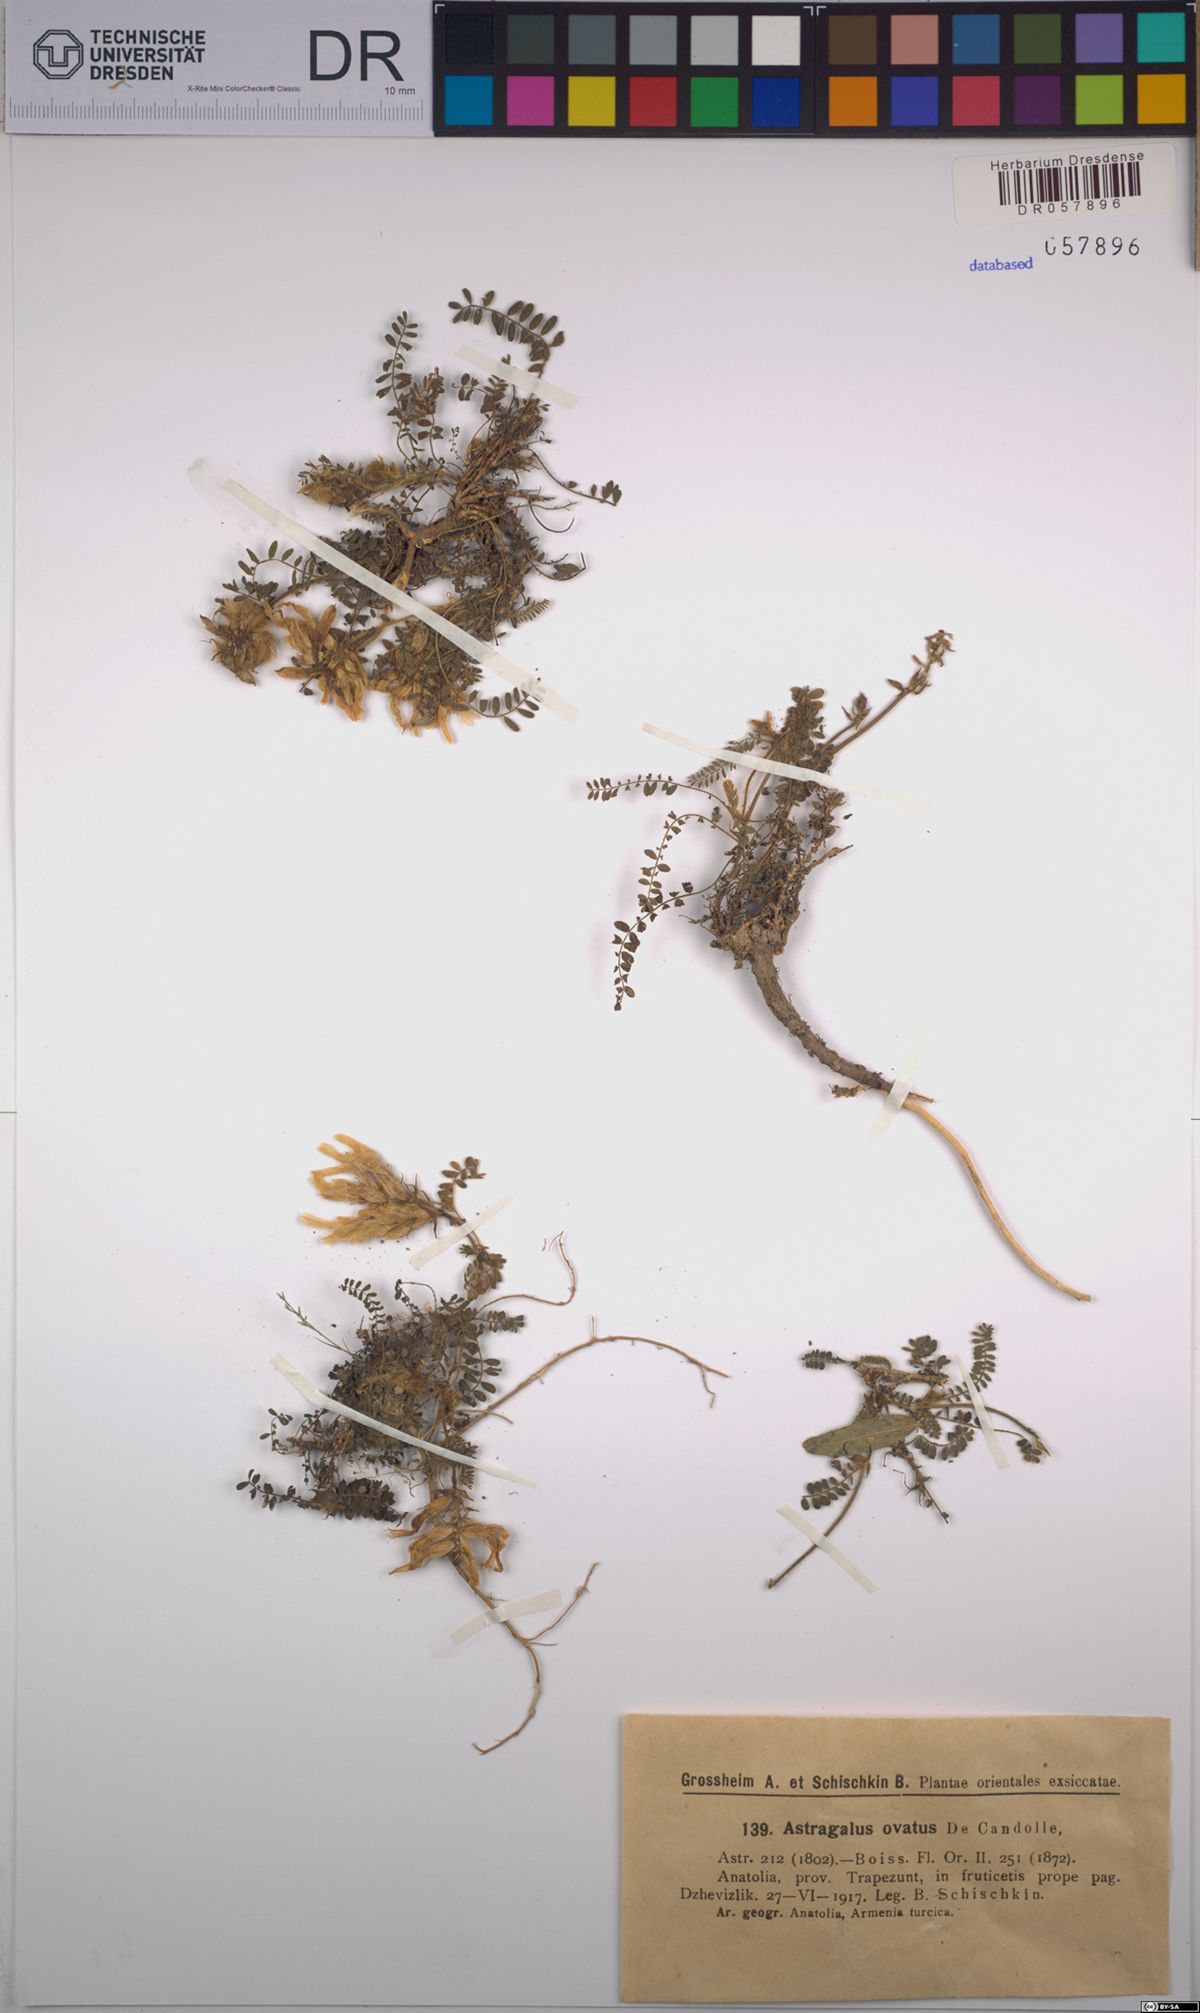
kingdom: Plantae
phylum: Tracheophyta
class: Magnoliopsida
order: Fabales
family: Fabaceae
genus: Astragalus
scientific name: Astragalus ovatus
